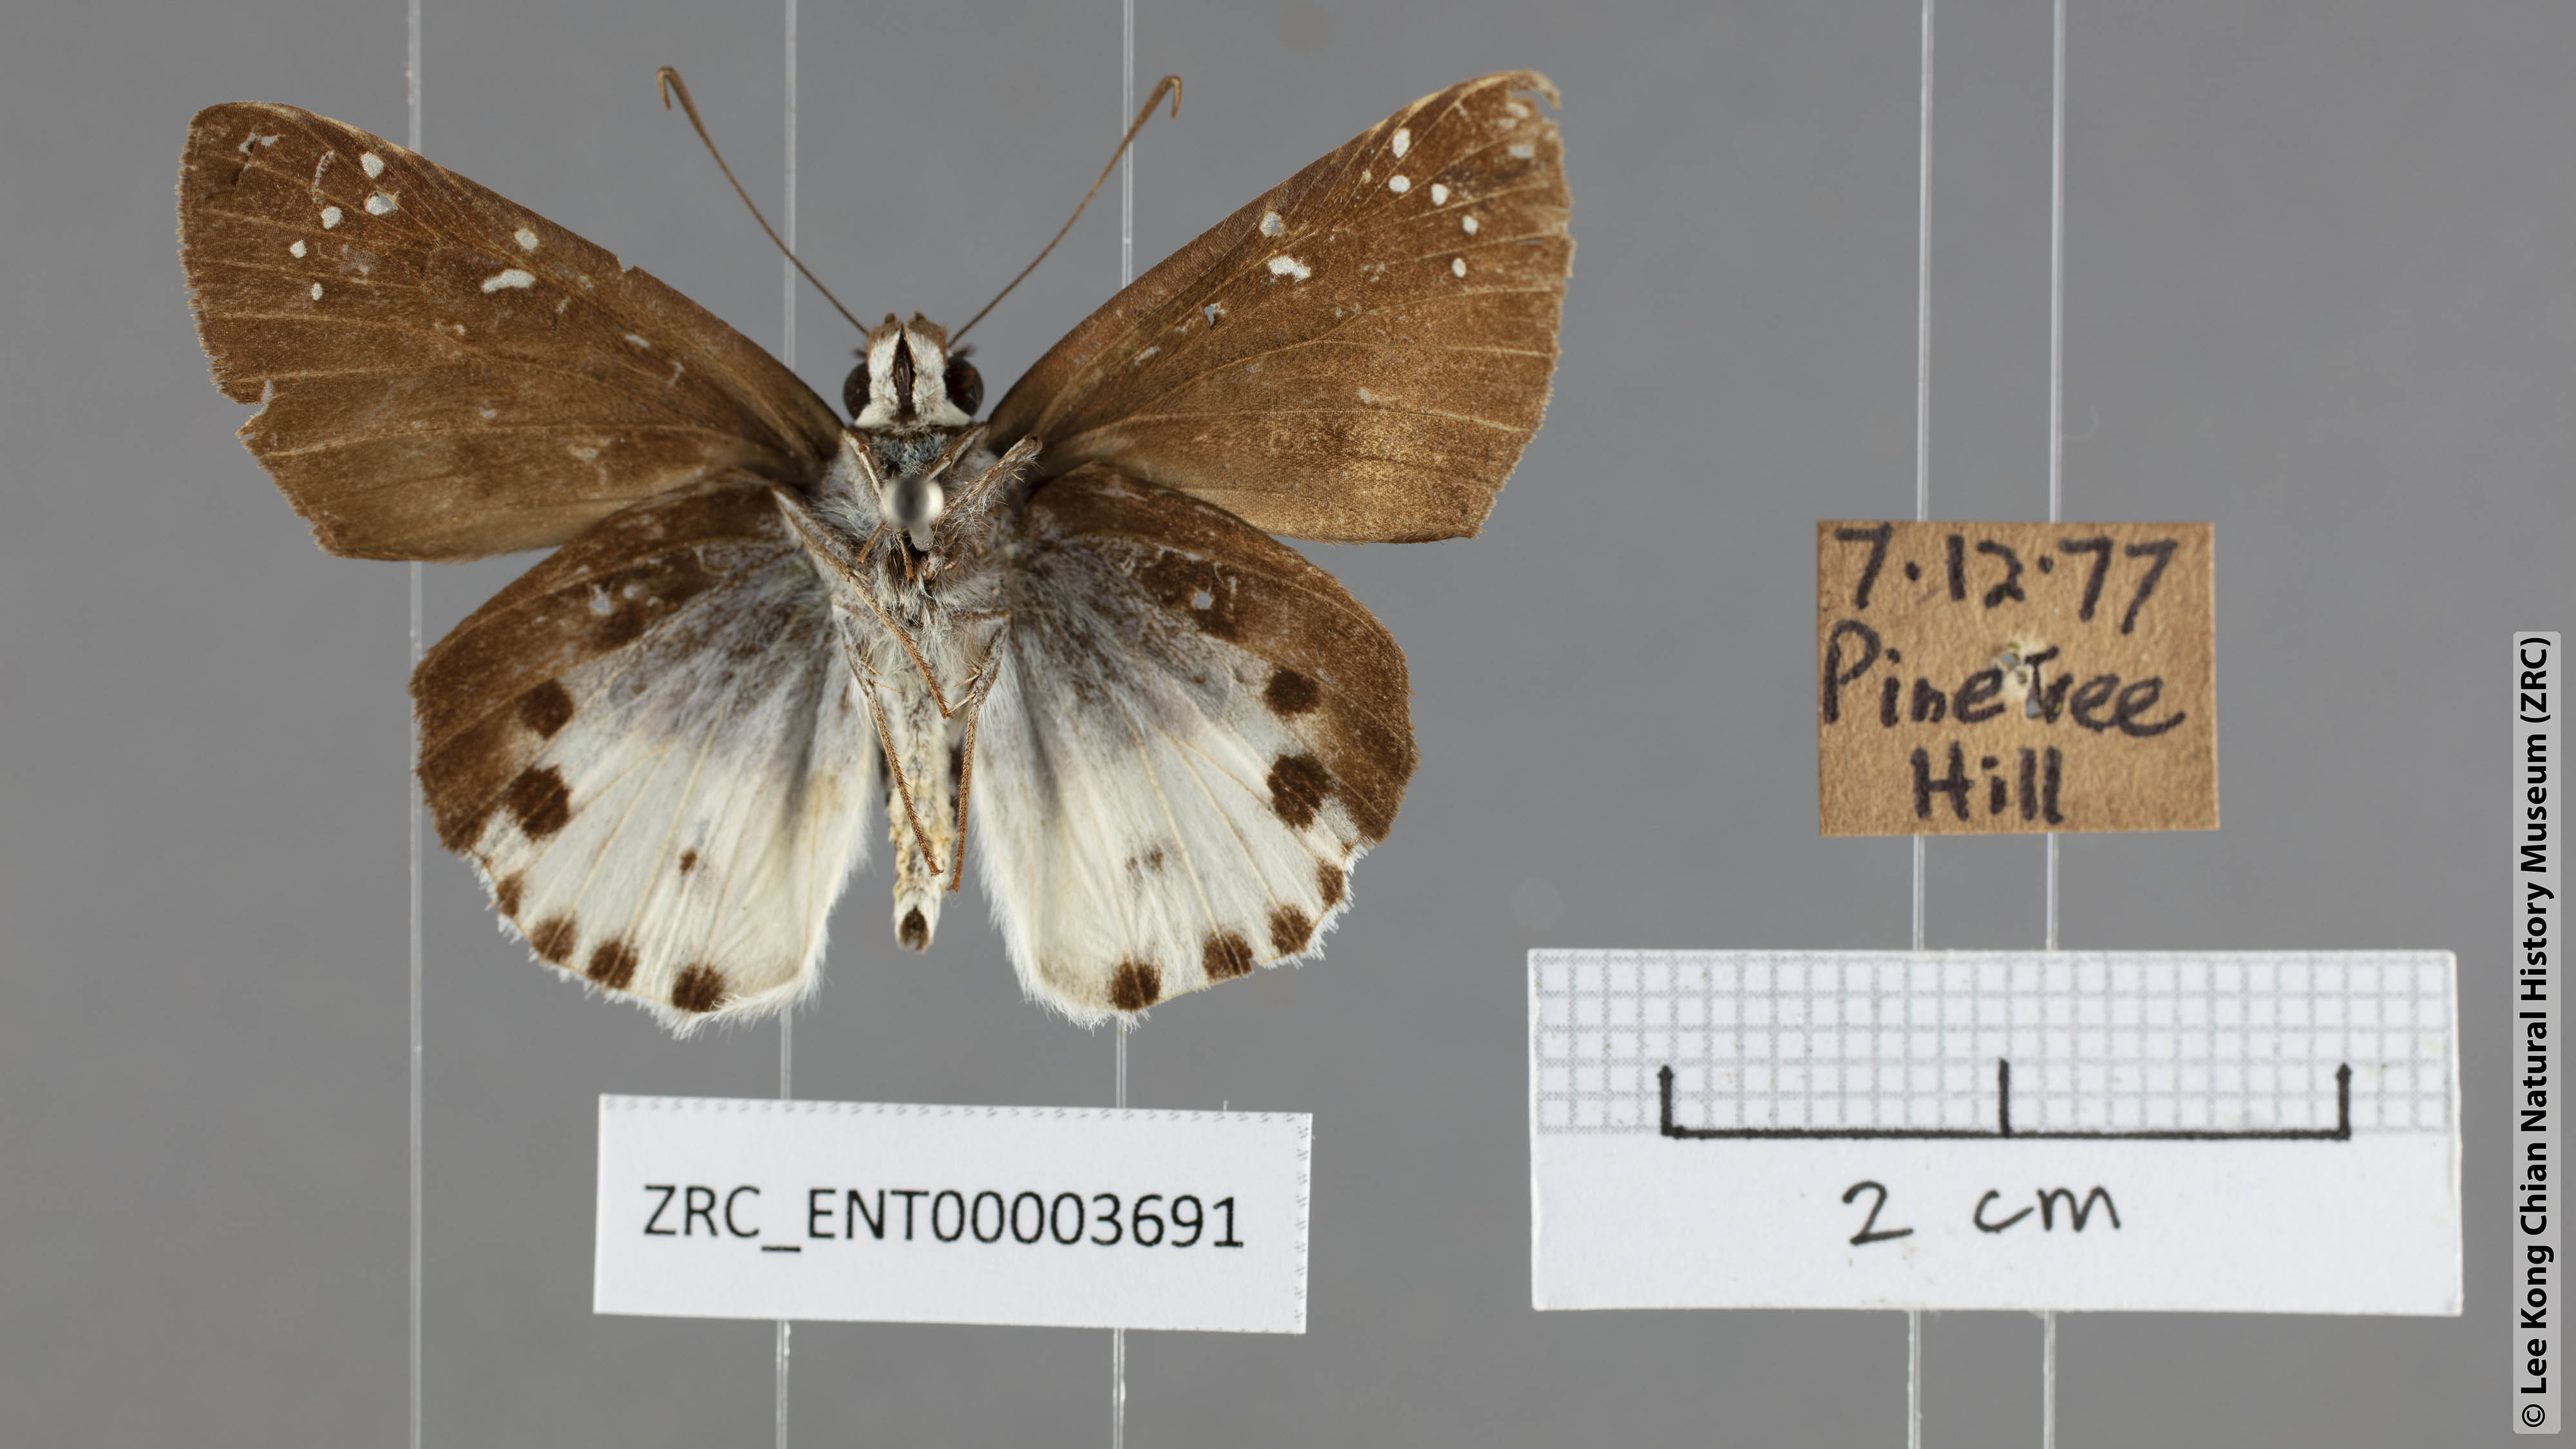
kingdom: Animalia
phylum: Arthropoda
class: Insecta
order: Lepidoptera
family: Hesperiidae
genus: Tagiades
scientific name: Tagiades cohaerens
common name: White-striped snow flat
